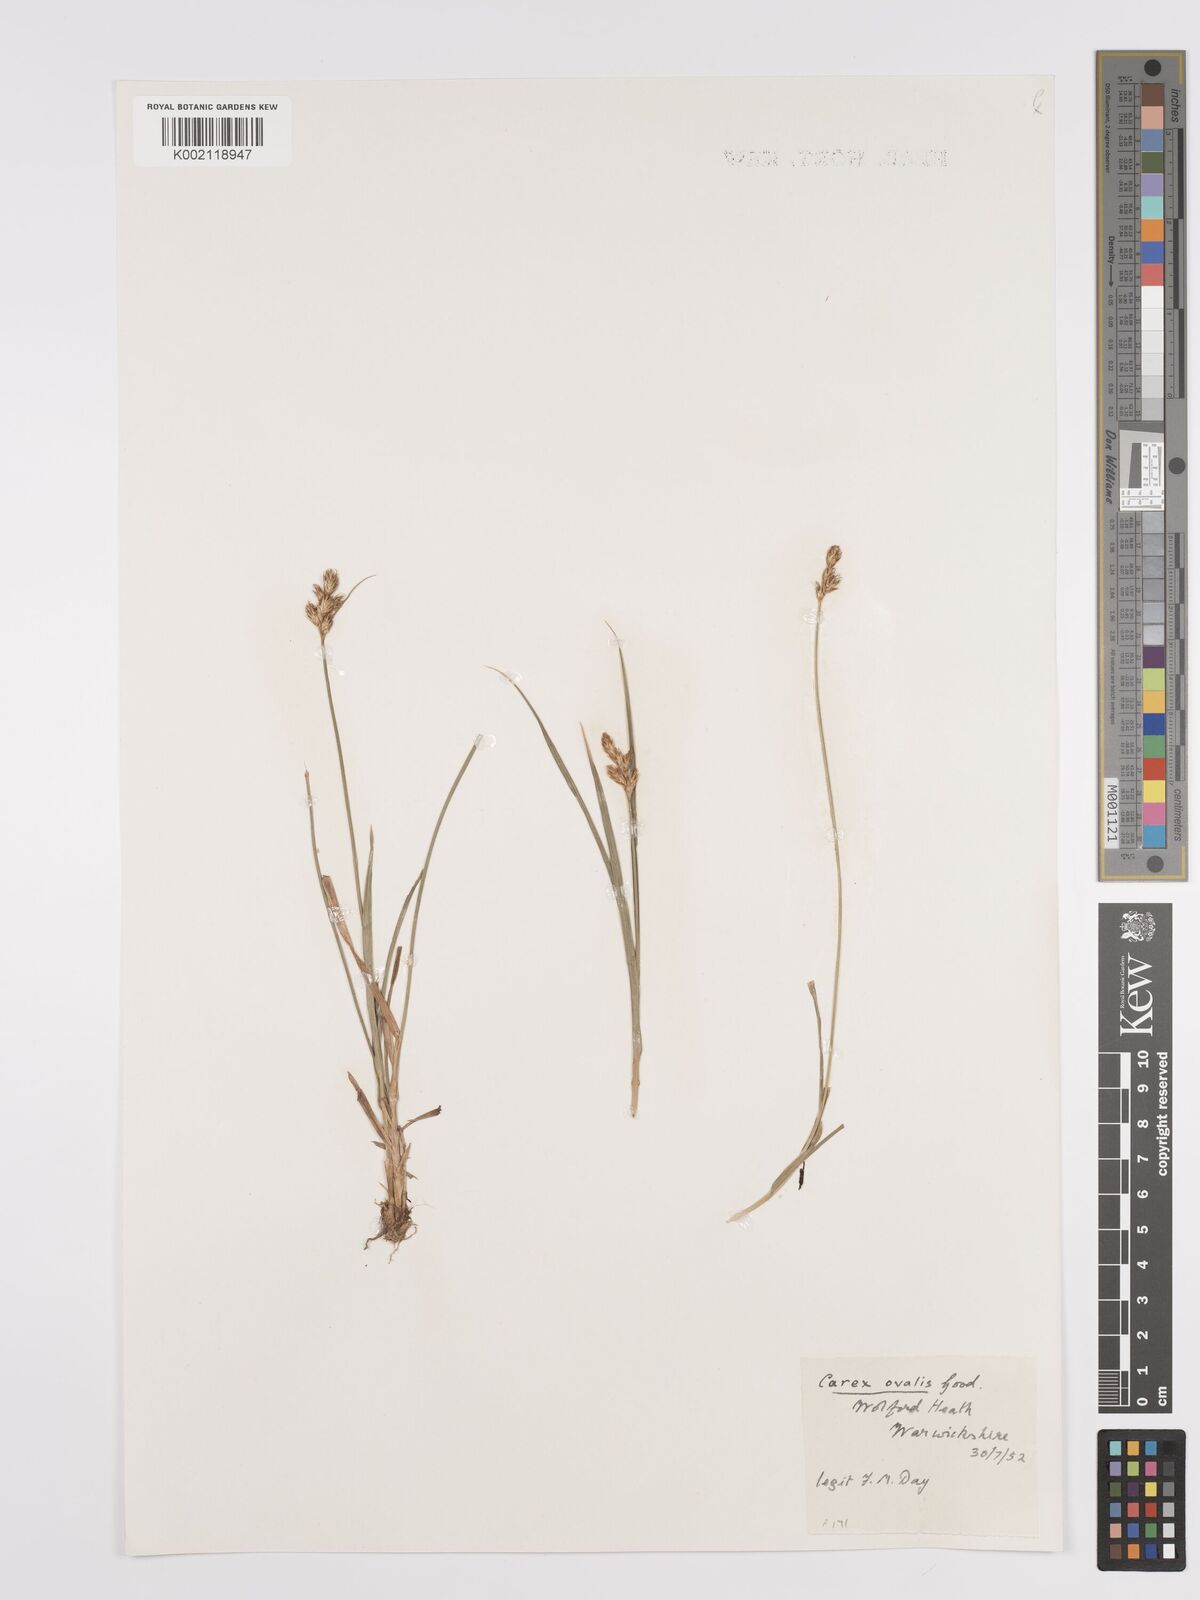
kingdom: Plantae
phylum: Tracheophyta
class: Liliopsida
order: Poales
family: Cyperaceae
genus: Carex
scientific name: Carex leporina
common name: Oval sedge
